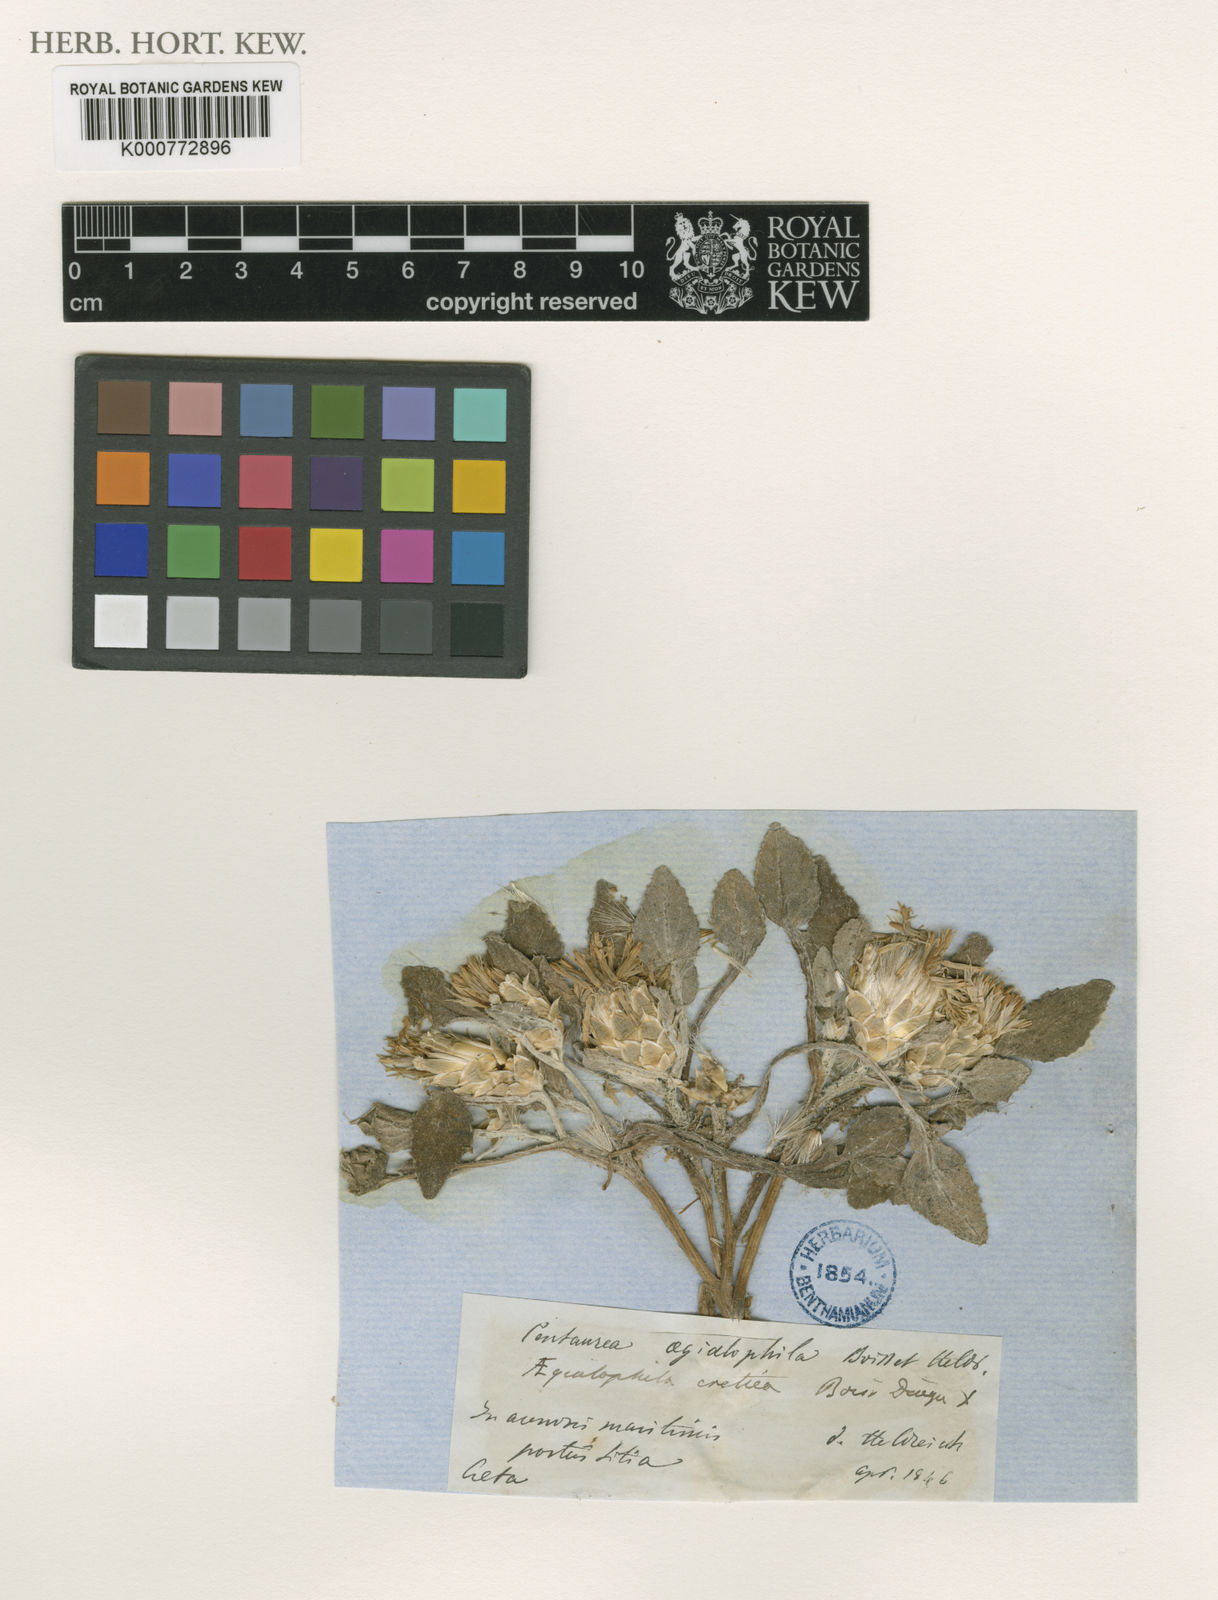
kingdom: Plantae
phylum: Tracheophyta
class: Magnoliopsida
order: Asterales
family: Asteraceae
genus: Centaurea
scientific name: Centaurea
